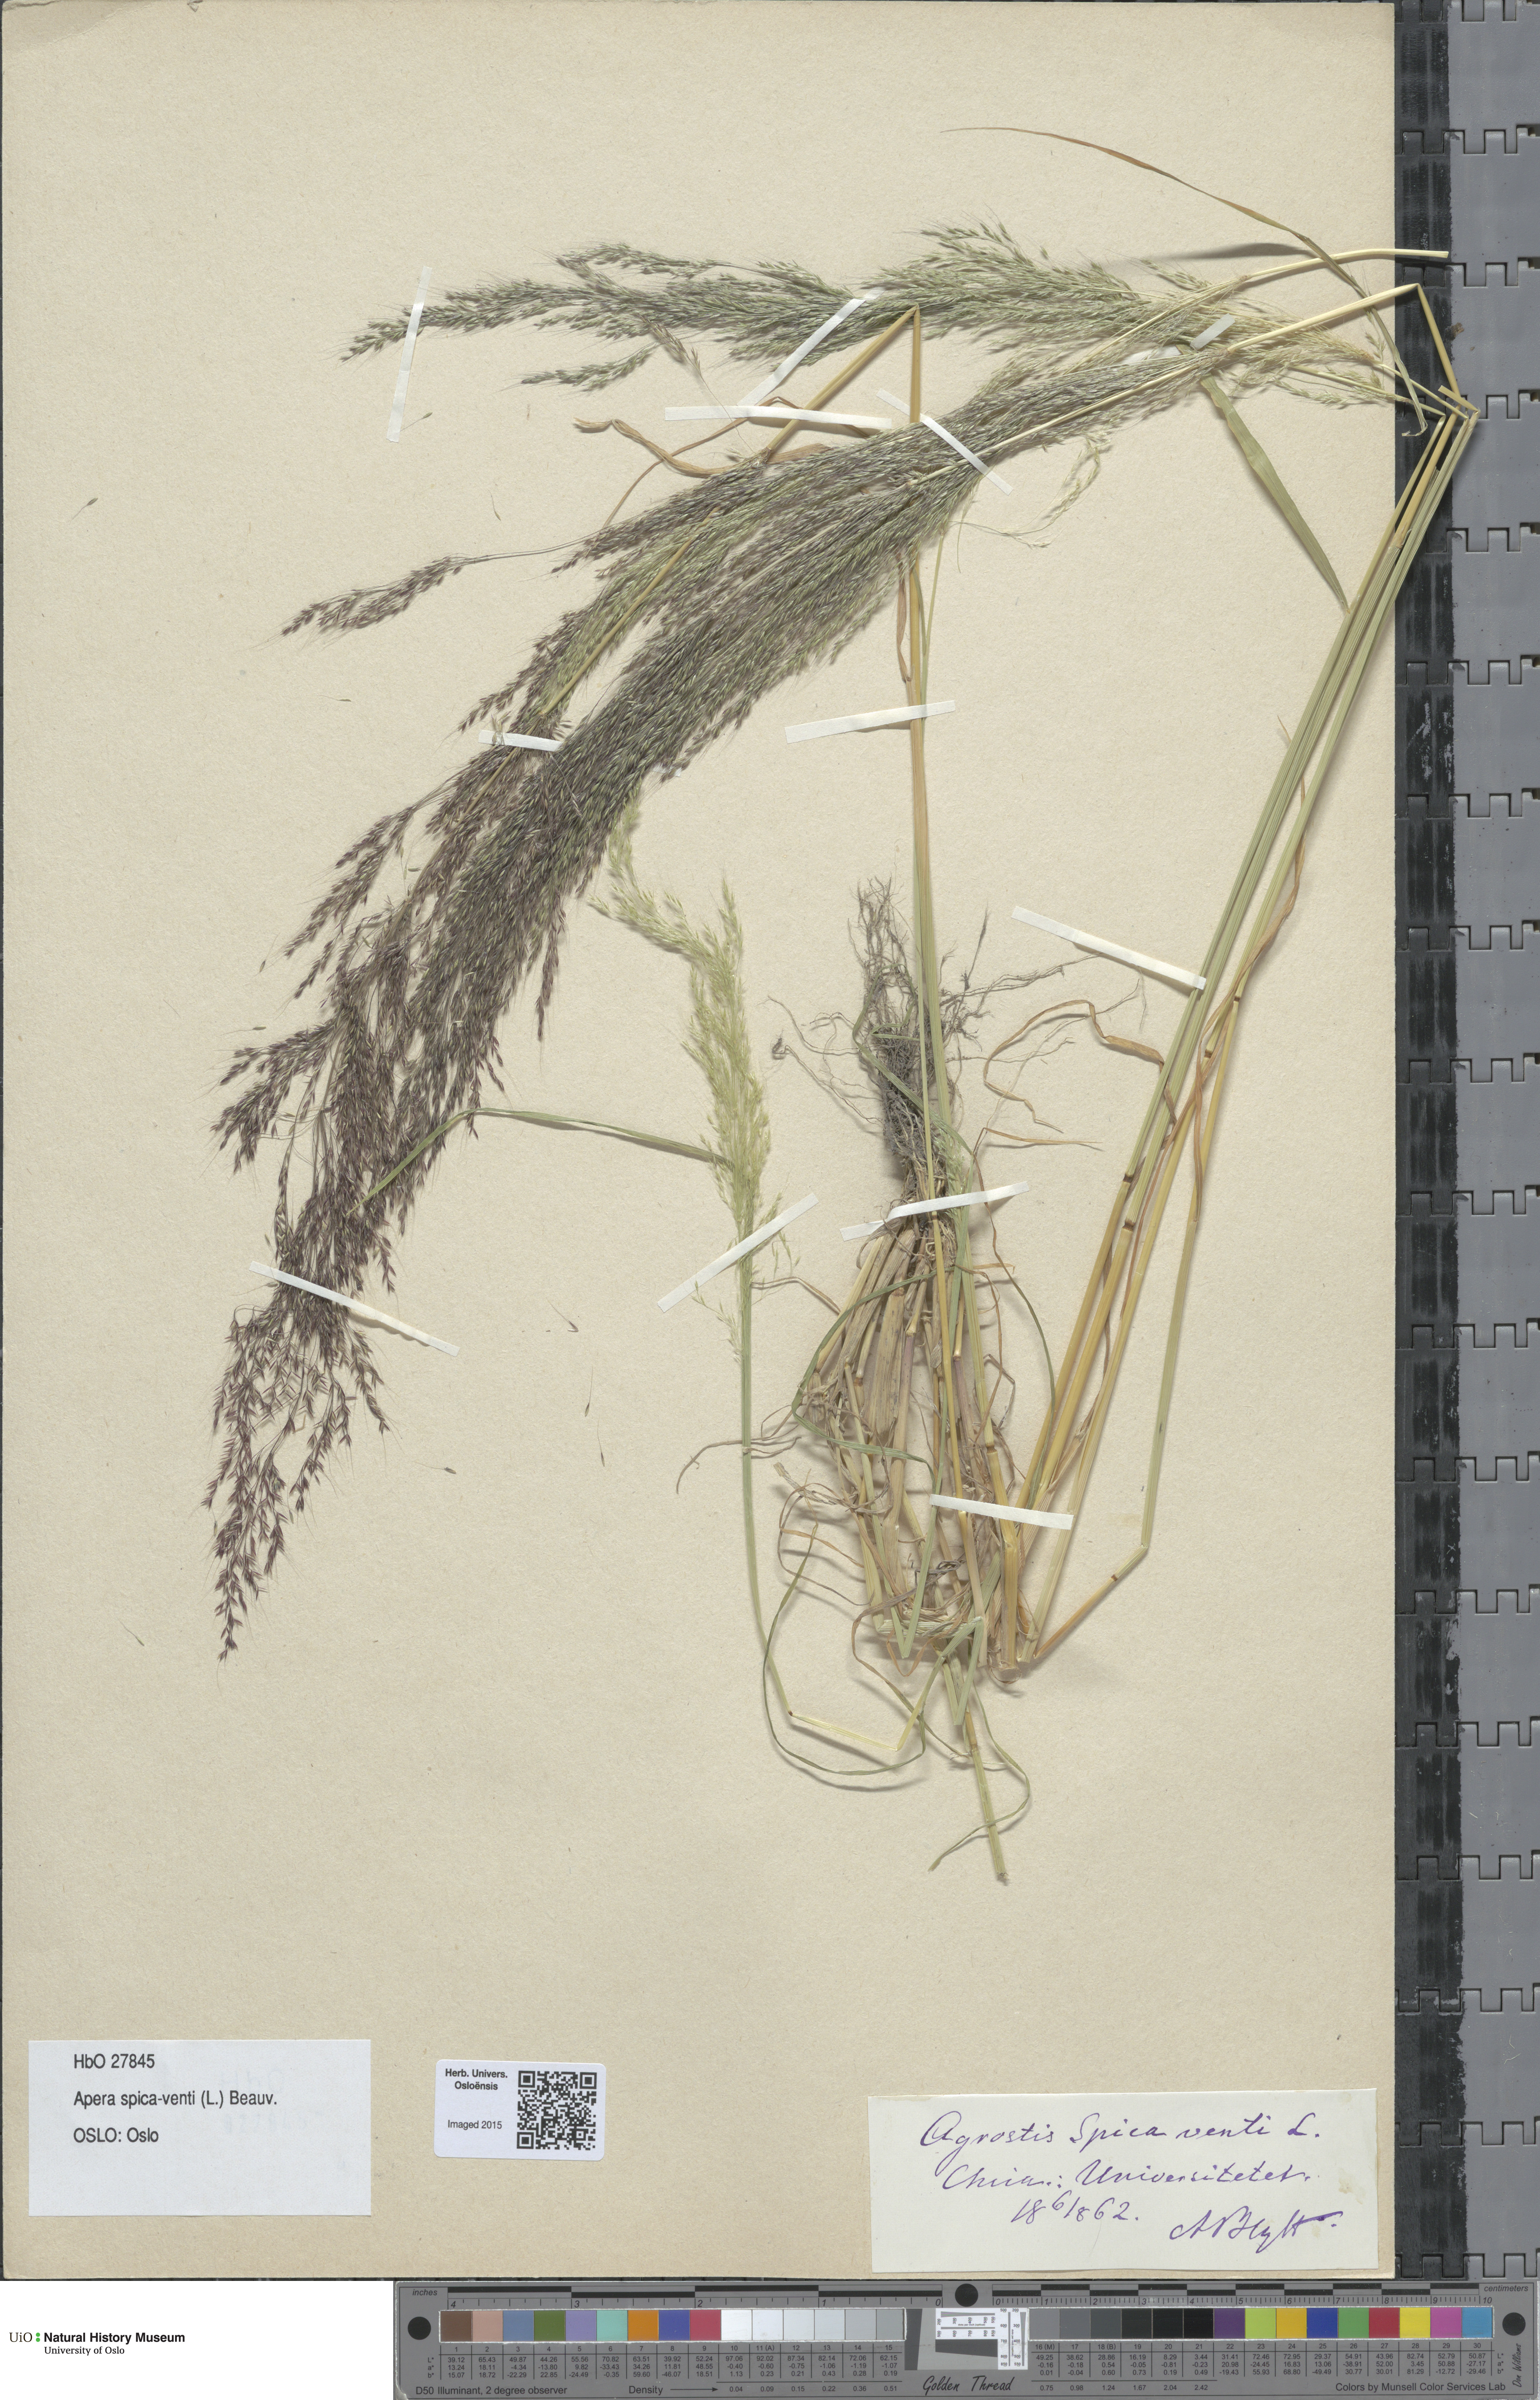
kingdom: Plantae
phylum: Tracheophyta
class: Liliopsida
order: Poales
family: Poaceae
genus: Apera
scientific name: Apera spica-venti
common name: Loose silky-bent
